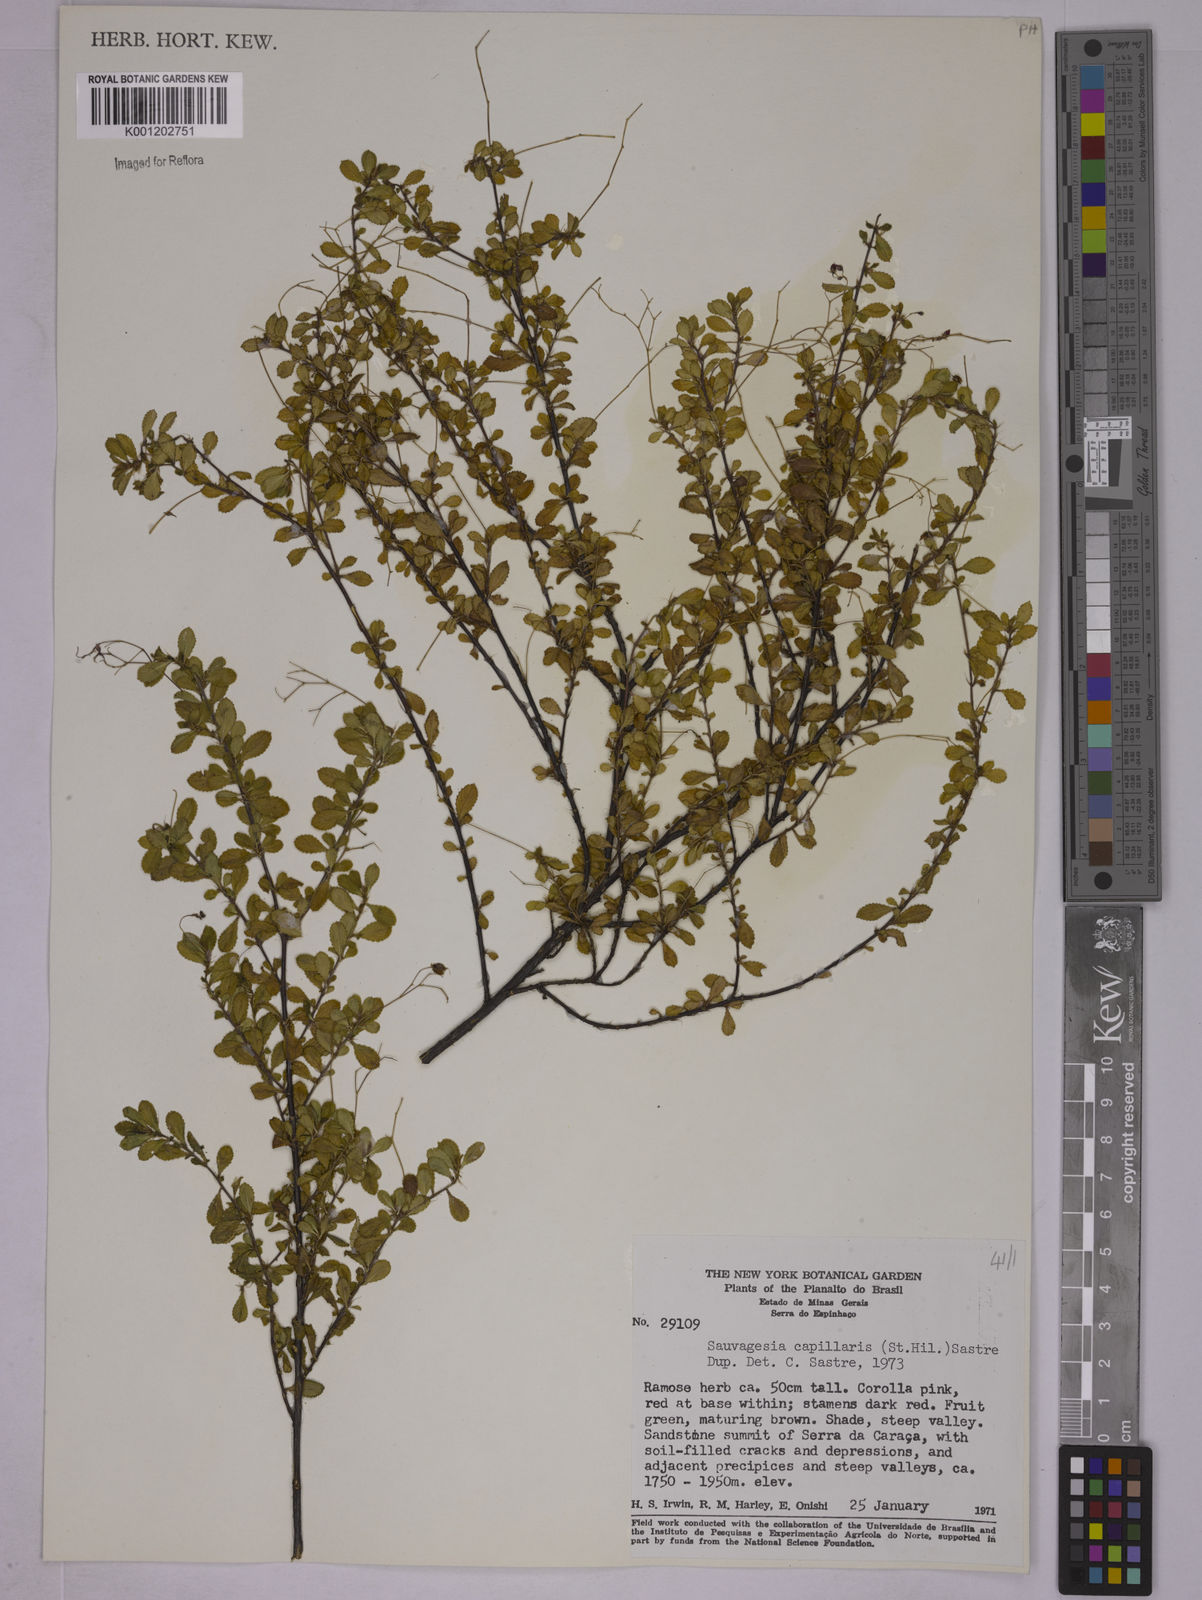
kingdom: Plantae
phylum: Tracheophyta
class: Magnoliopsida
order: Malpighiales
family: Ochnaceae
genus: Sauvagesia
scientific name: Sauvagesia capillaris
